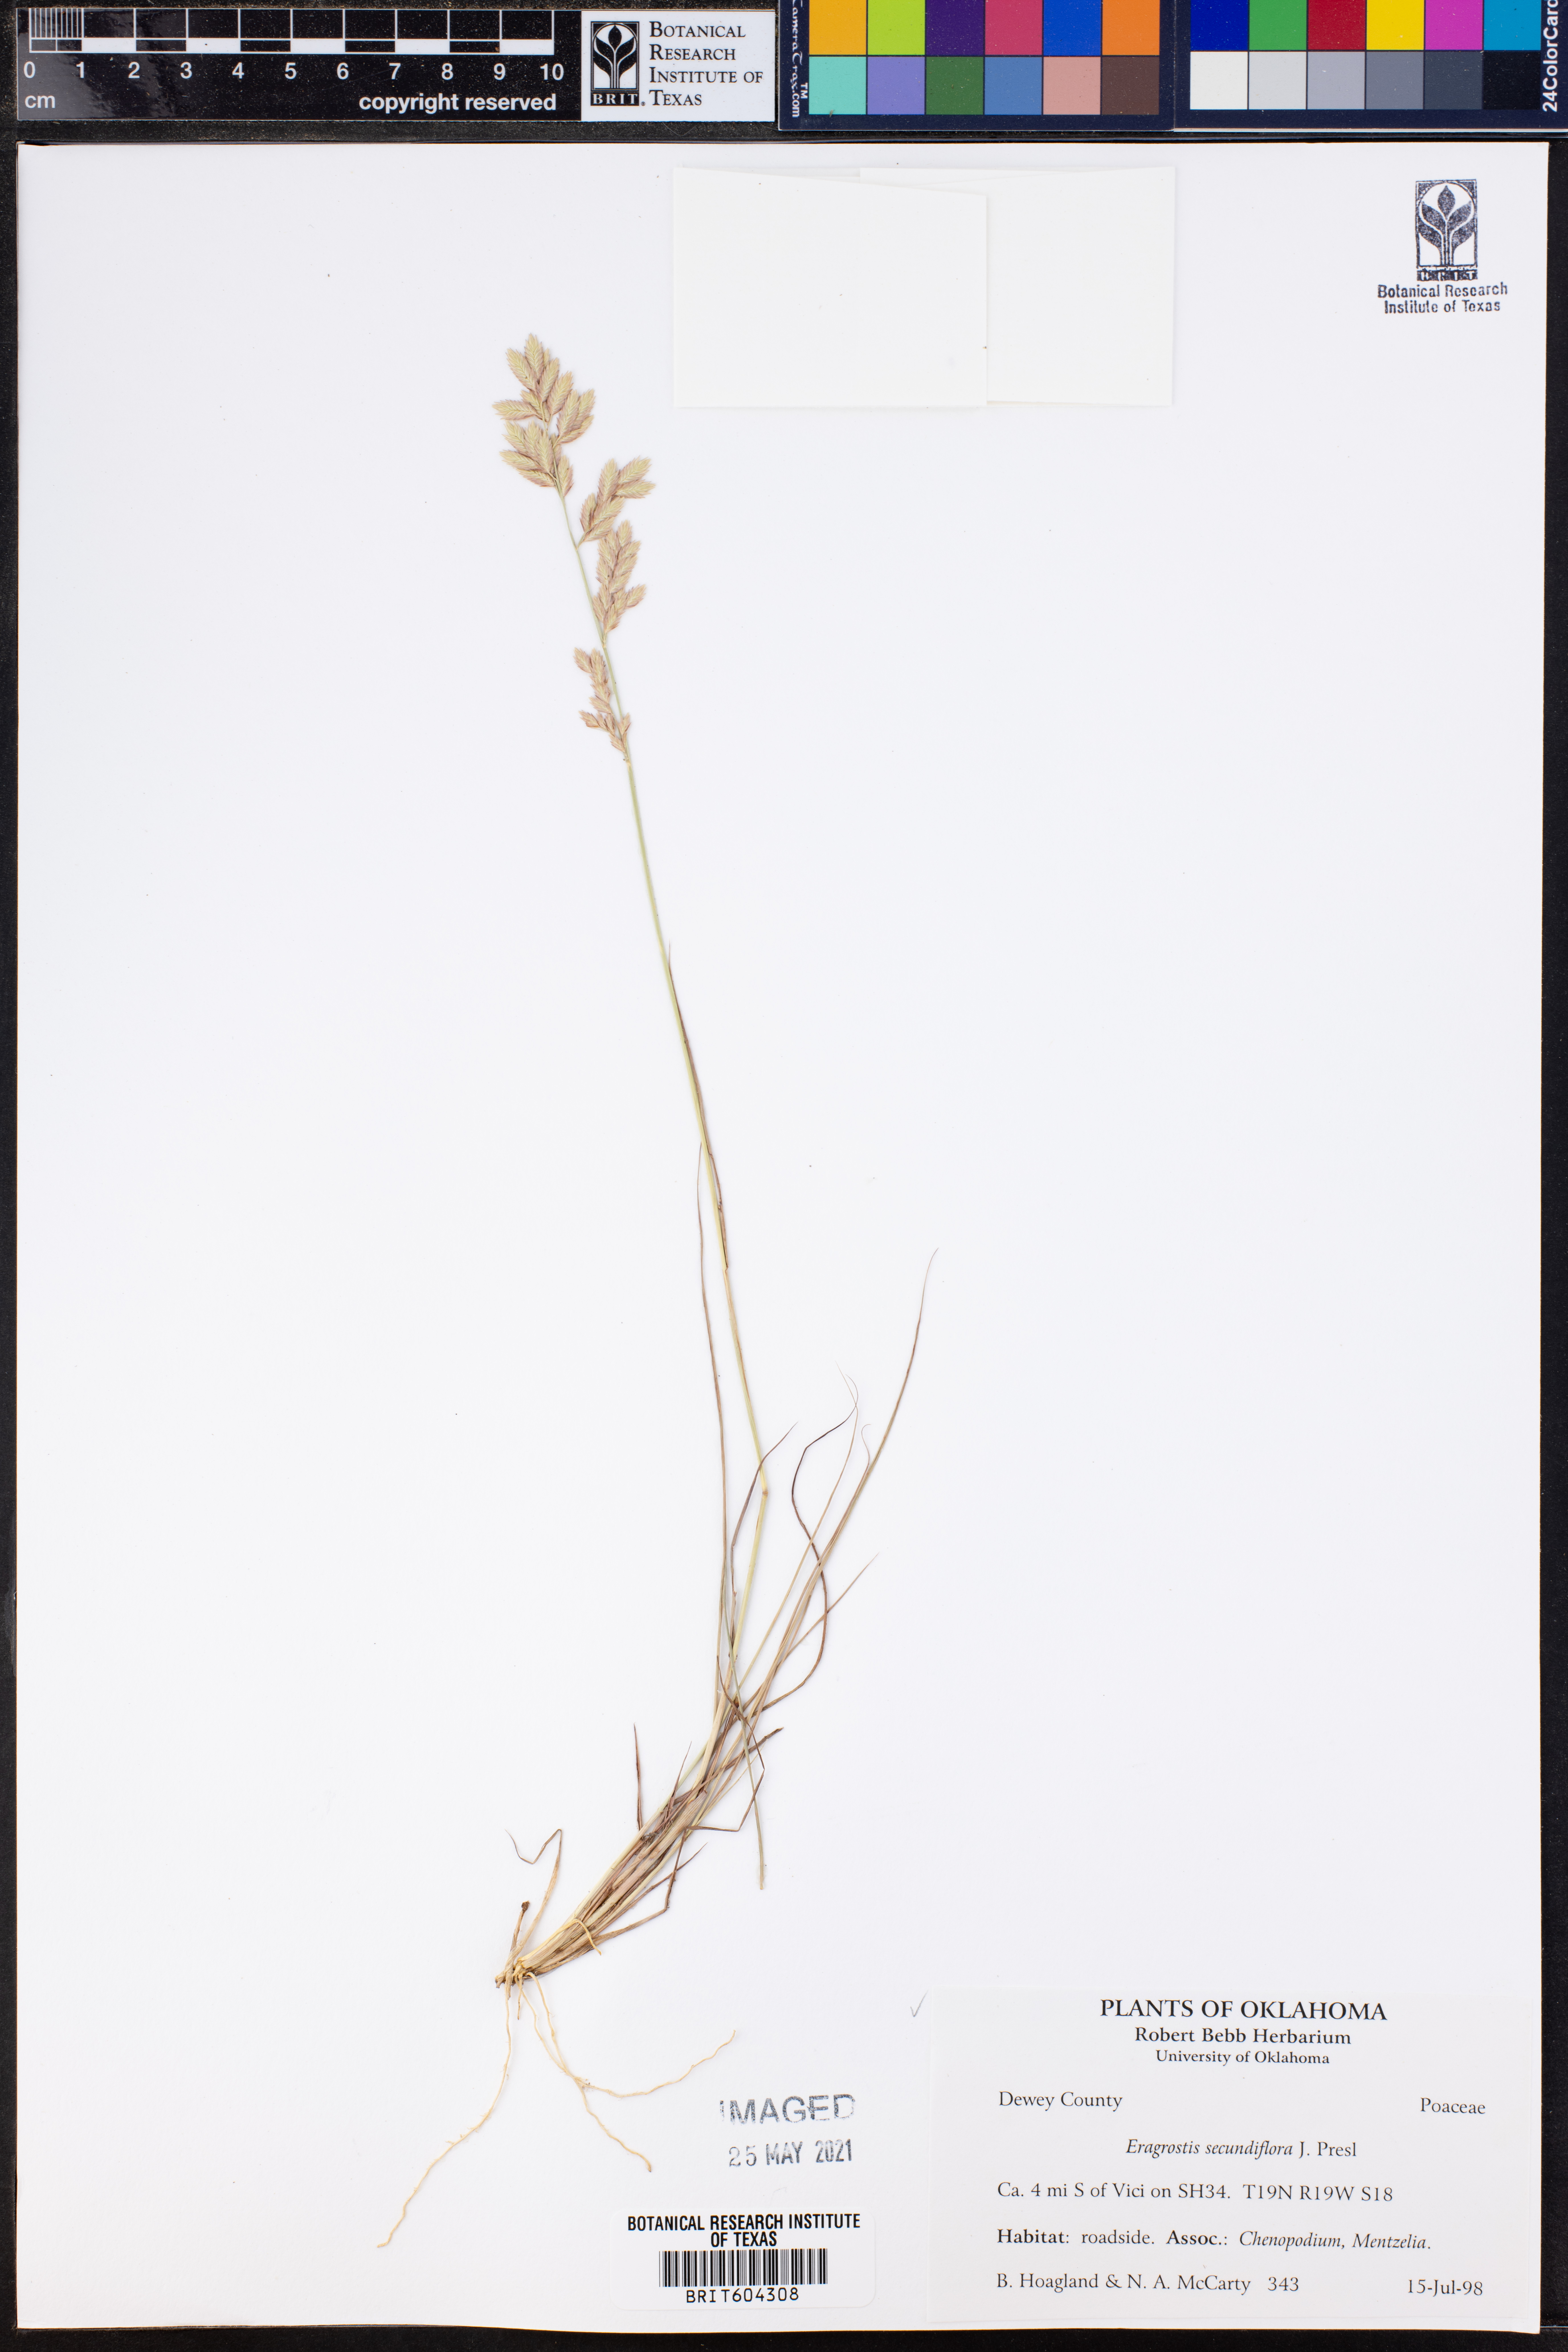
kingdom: Plantae
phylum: Tracheophyta
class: Liliopsida
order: Poales
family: Poaceae
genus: Eragrostis
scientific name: Eragrostis secundiflora
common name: Red love grass
